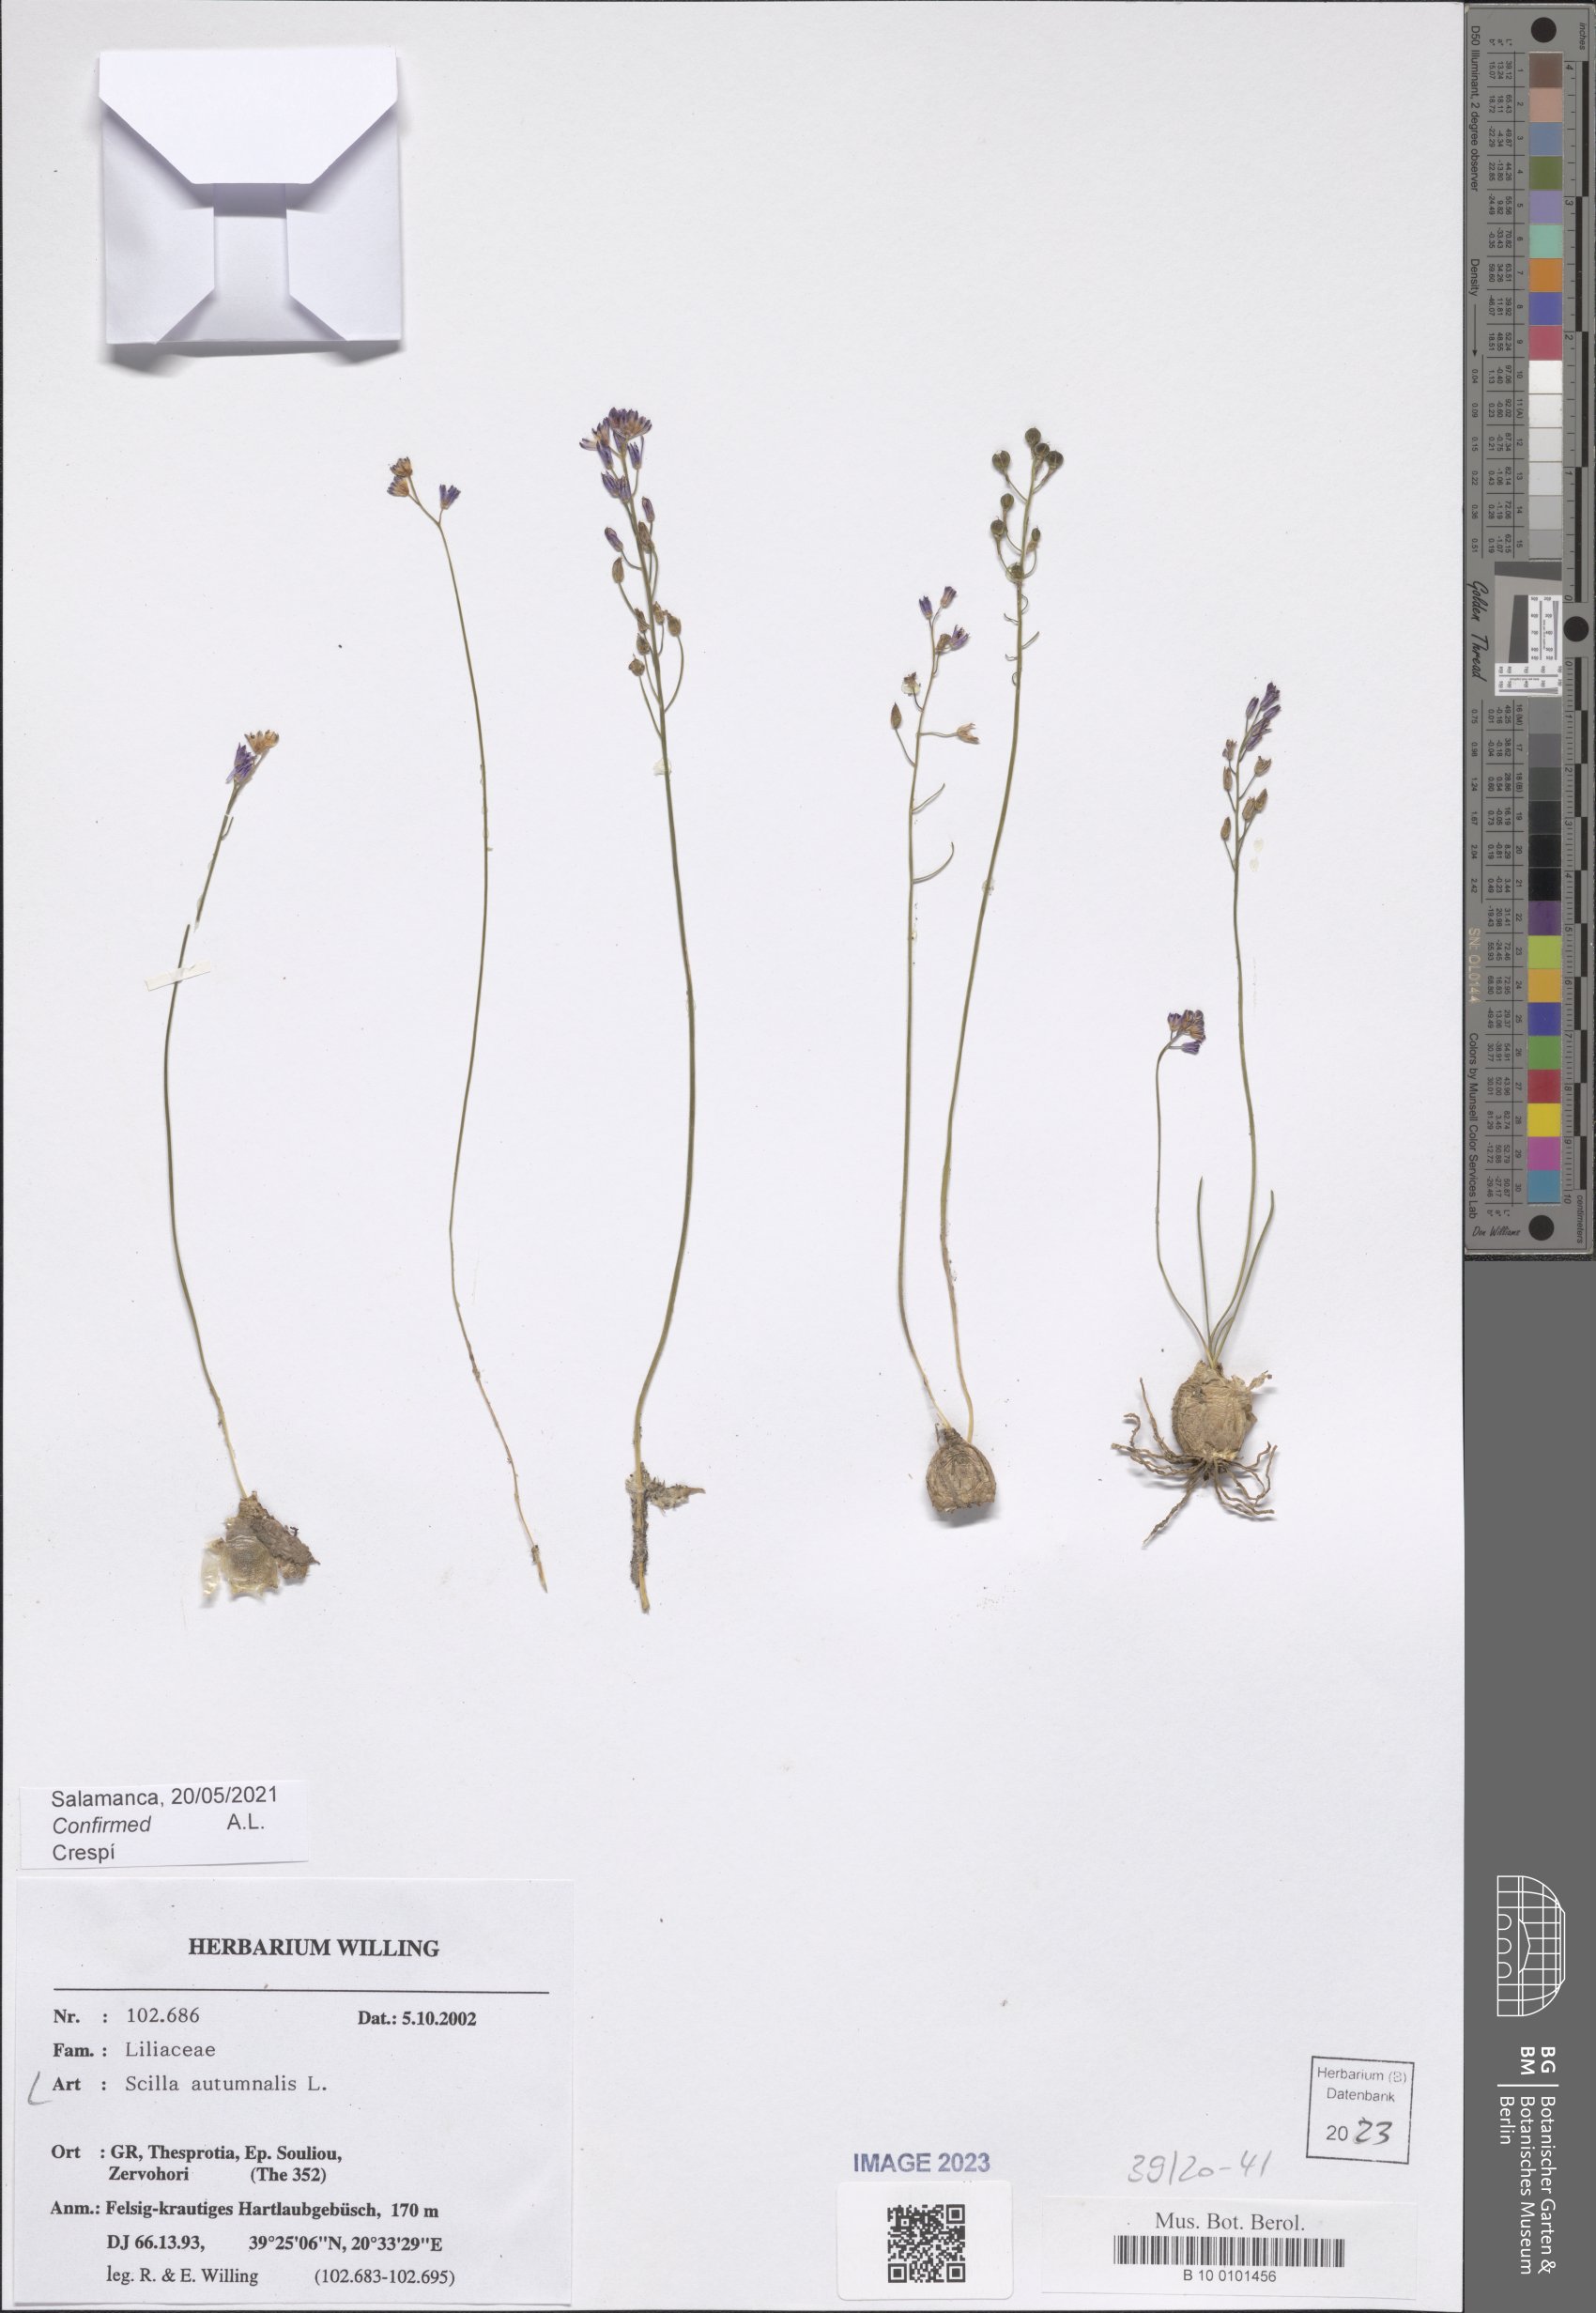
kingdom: Plantae
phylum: Tracheophyta
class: Liliopsida
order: Asparagales
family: Asparagaceae
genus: Prospero
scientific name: Prospero autumnale
